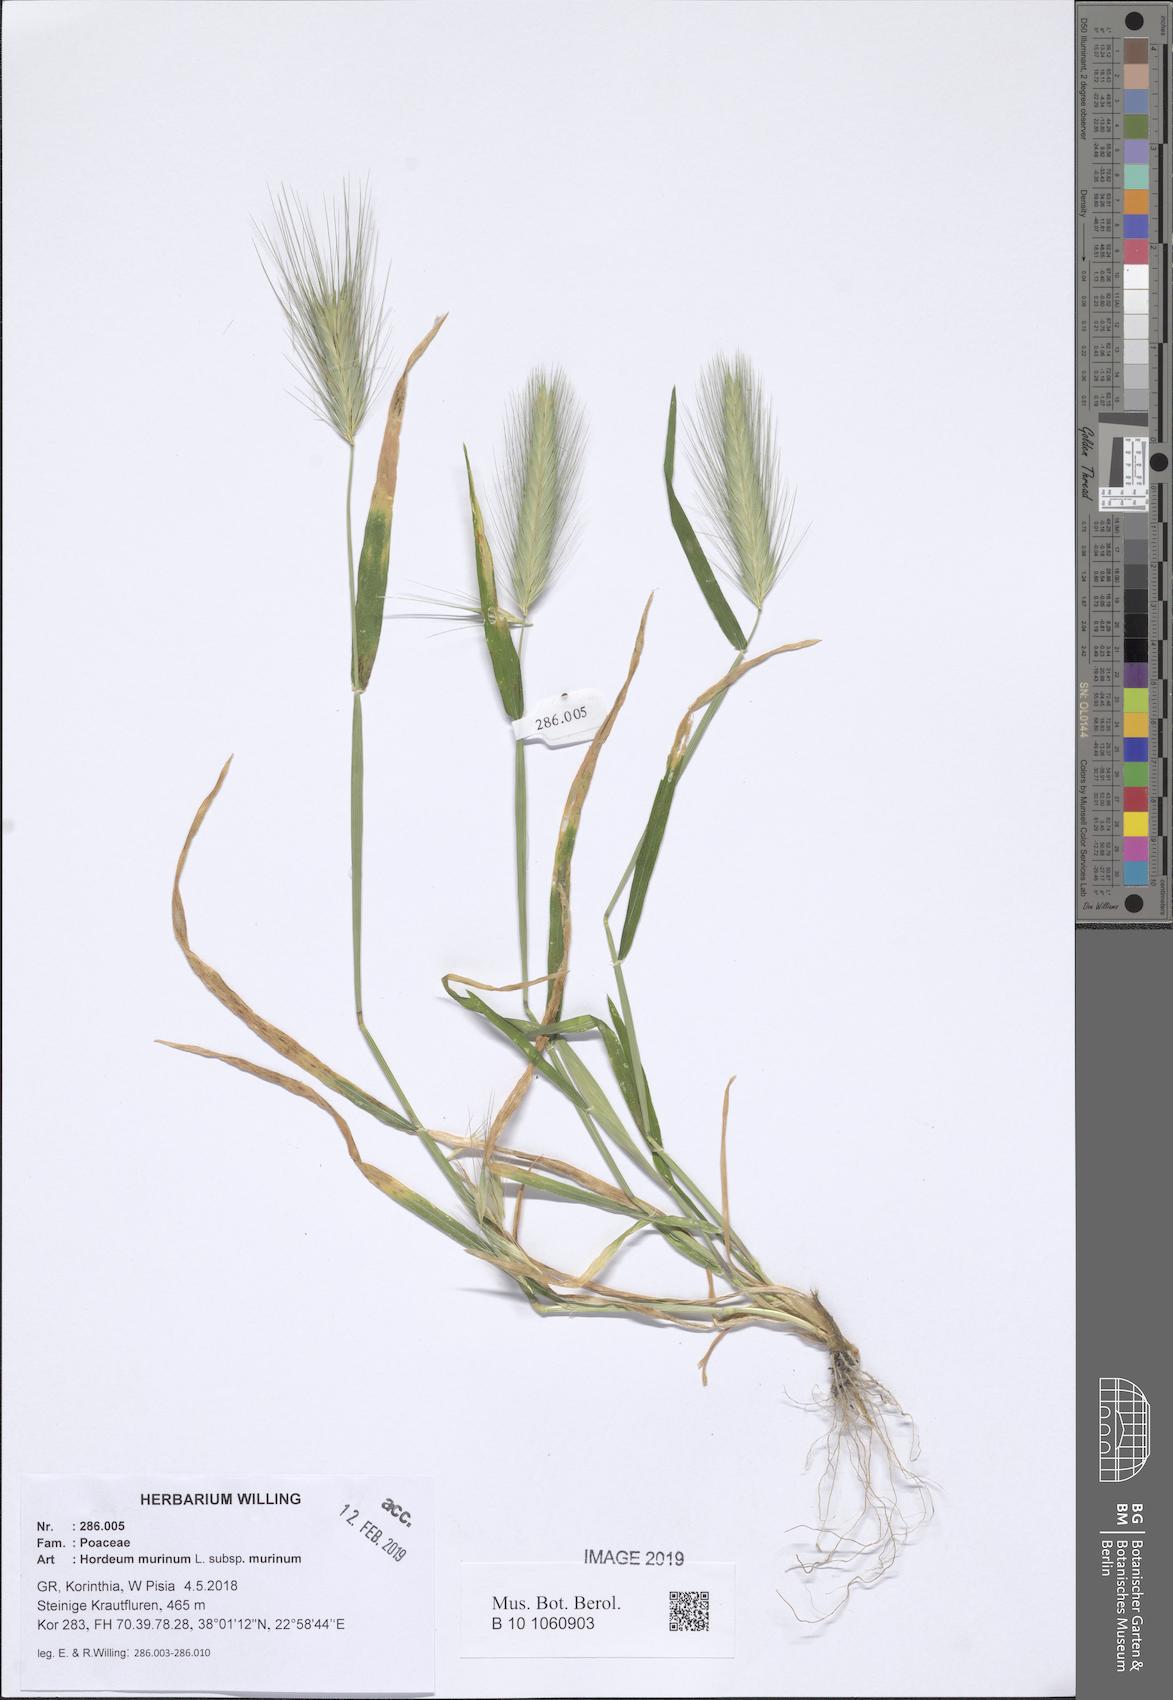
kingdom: Plantae
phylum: Tracheophyta
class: Liliopsida
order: Poales
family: Poaceae
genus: Hordeum
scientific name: Hordeum murinum
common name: Wall barley
